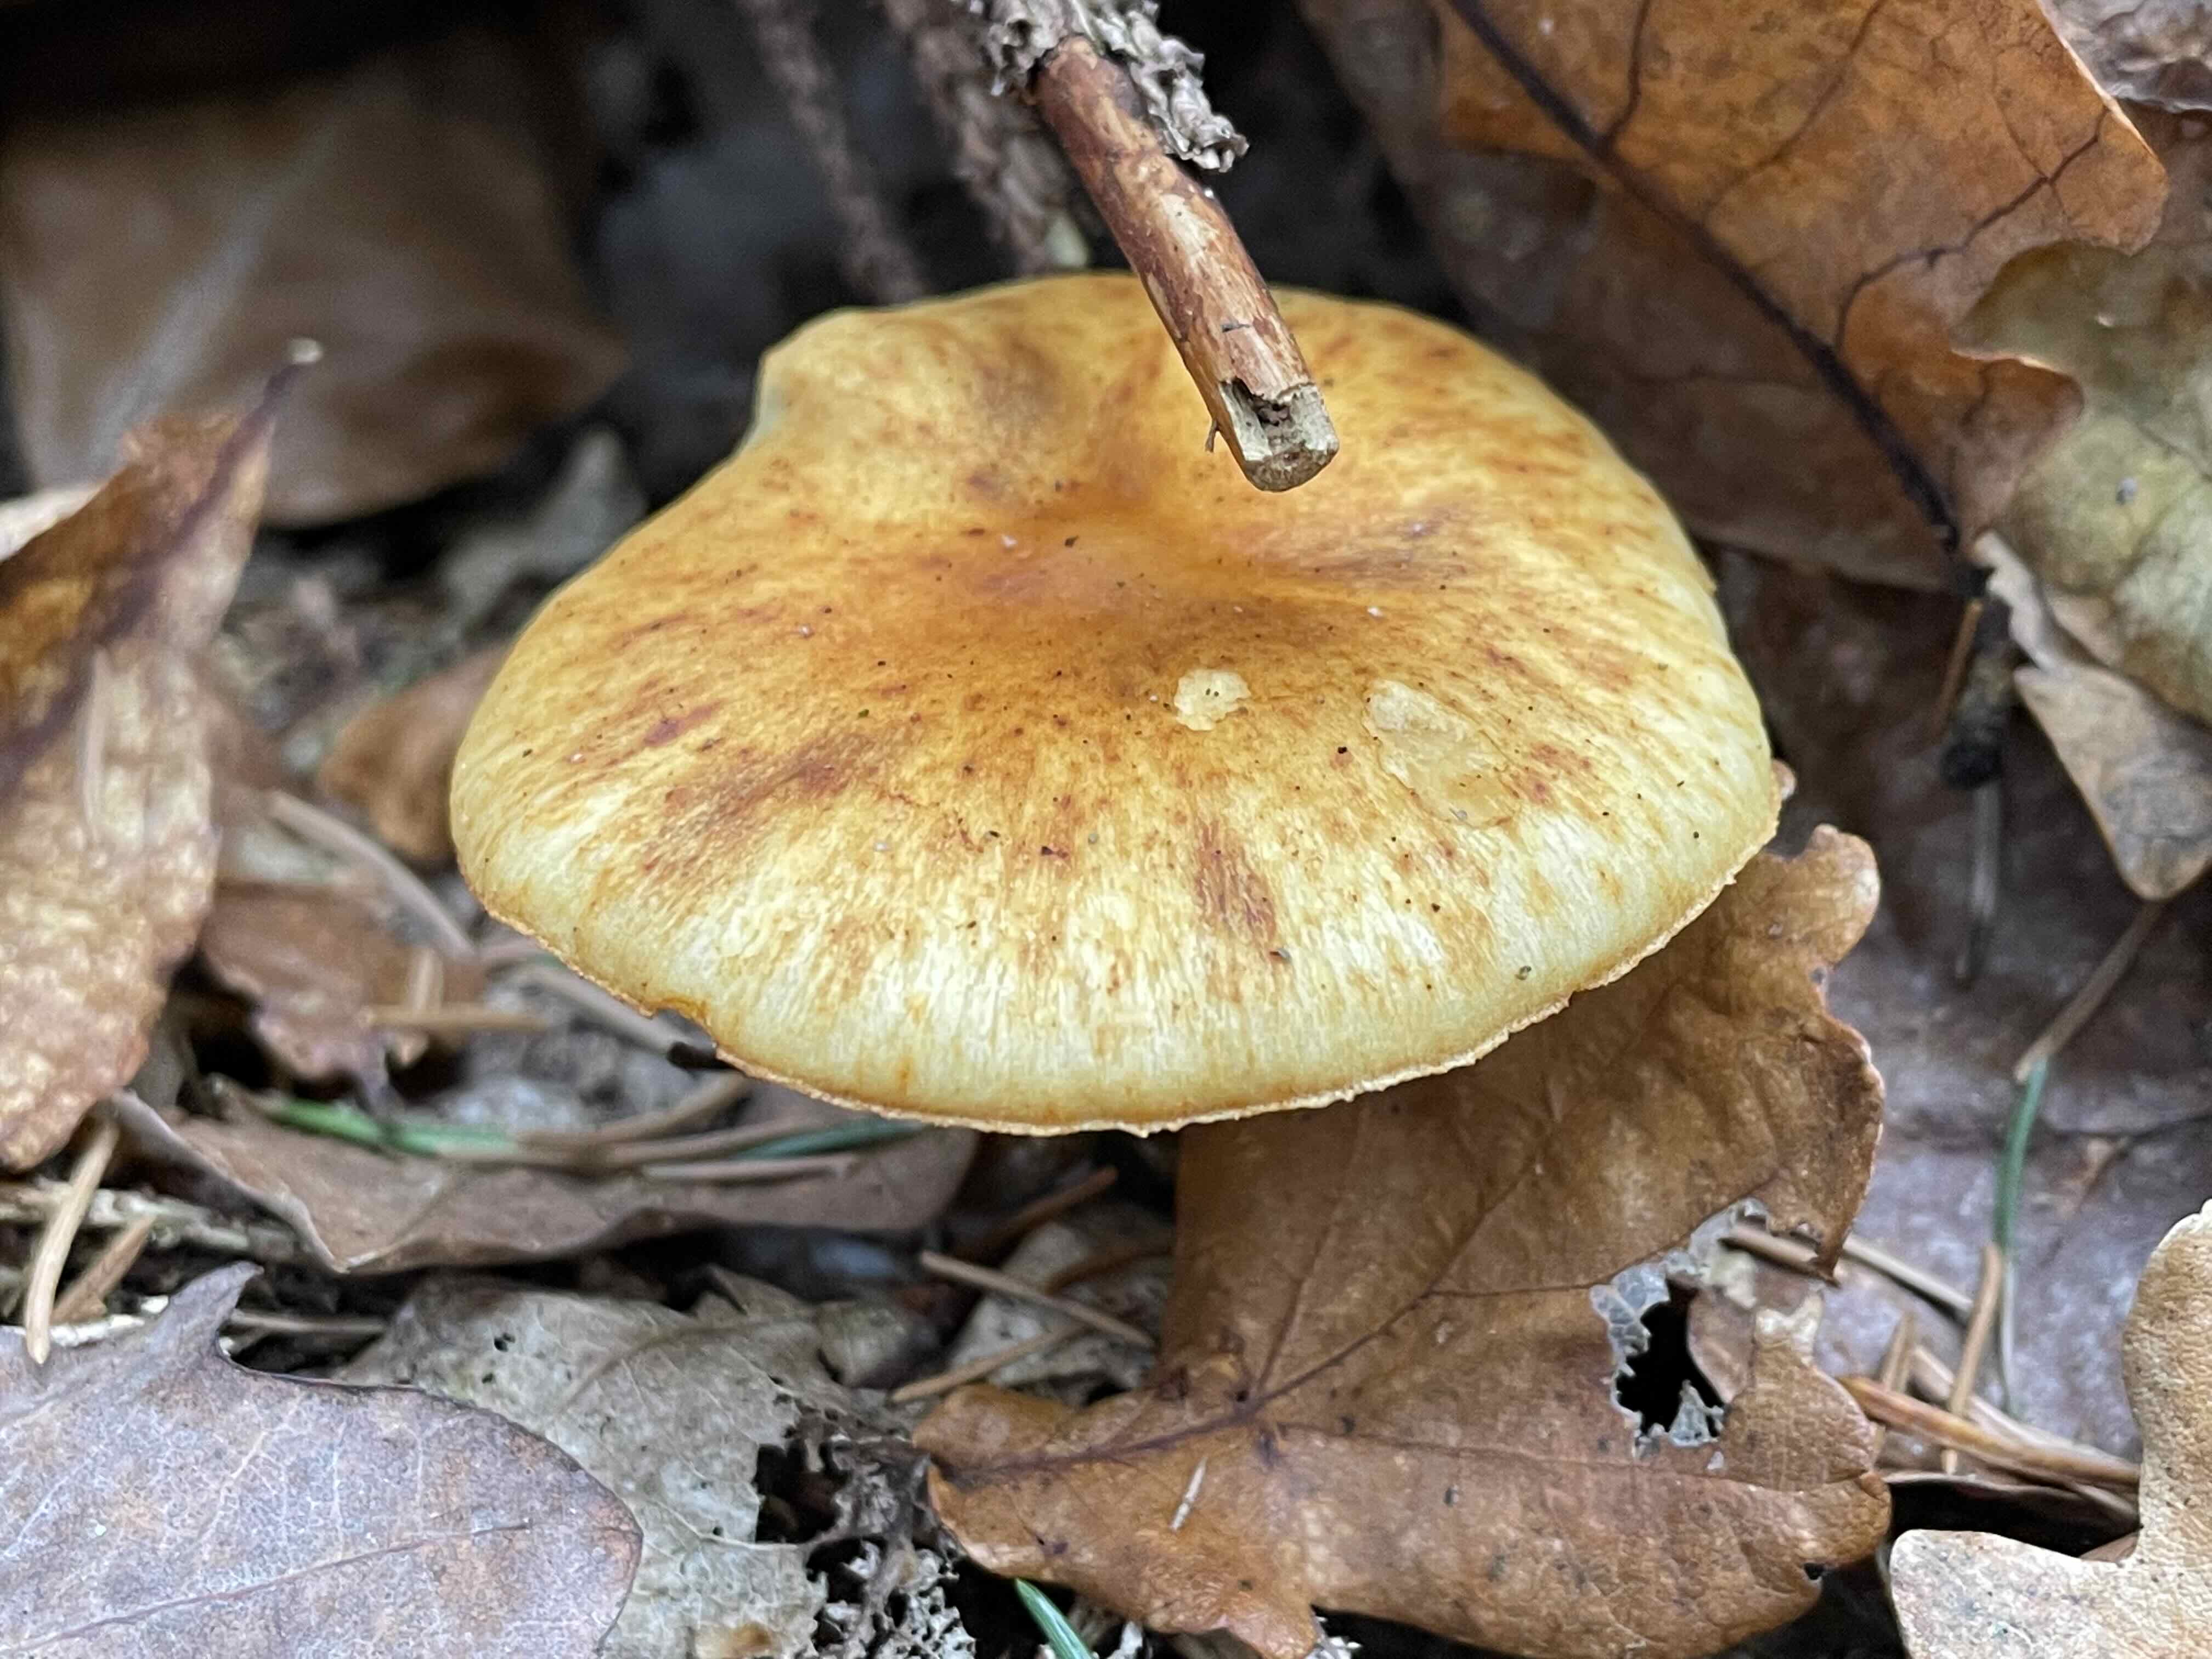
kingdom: Fungi
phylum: Basidiomycota
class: Agaricomycetes
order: Agaricales
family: Hymenogastraceae
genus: Gymnopilus
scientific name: Gymnopilus penetrans
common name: plettet flammehat
